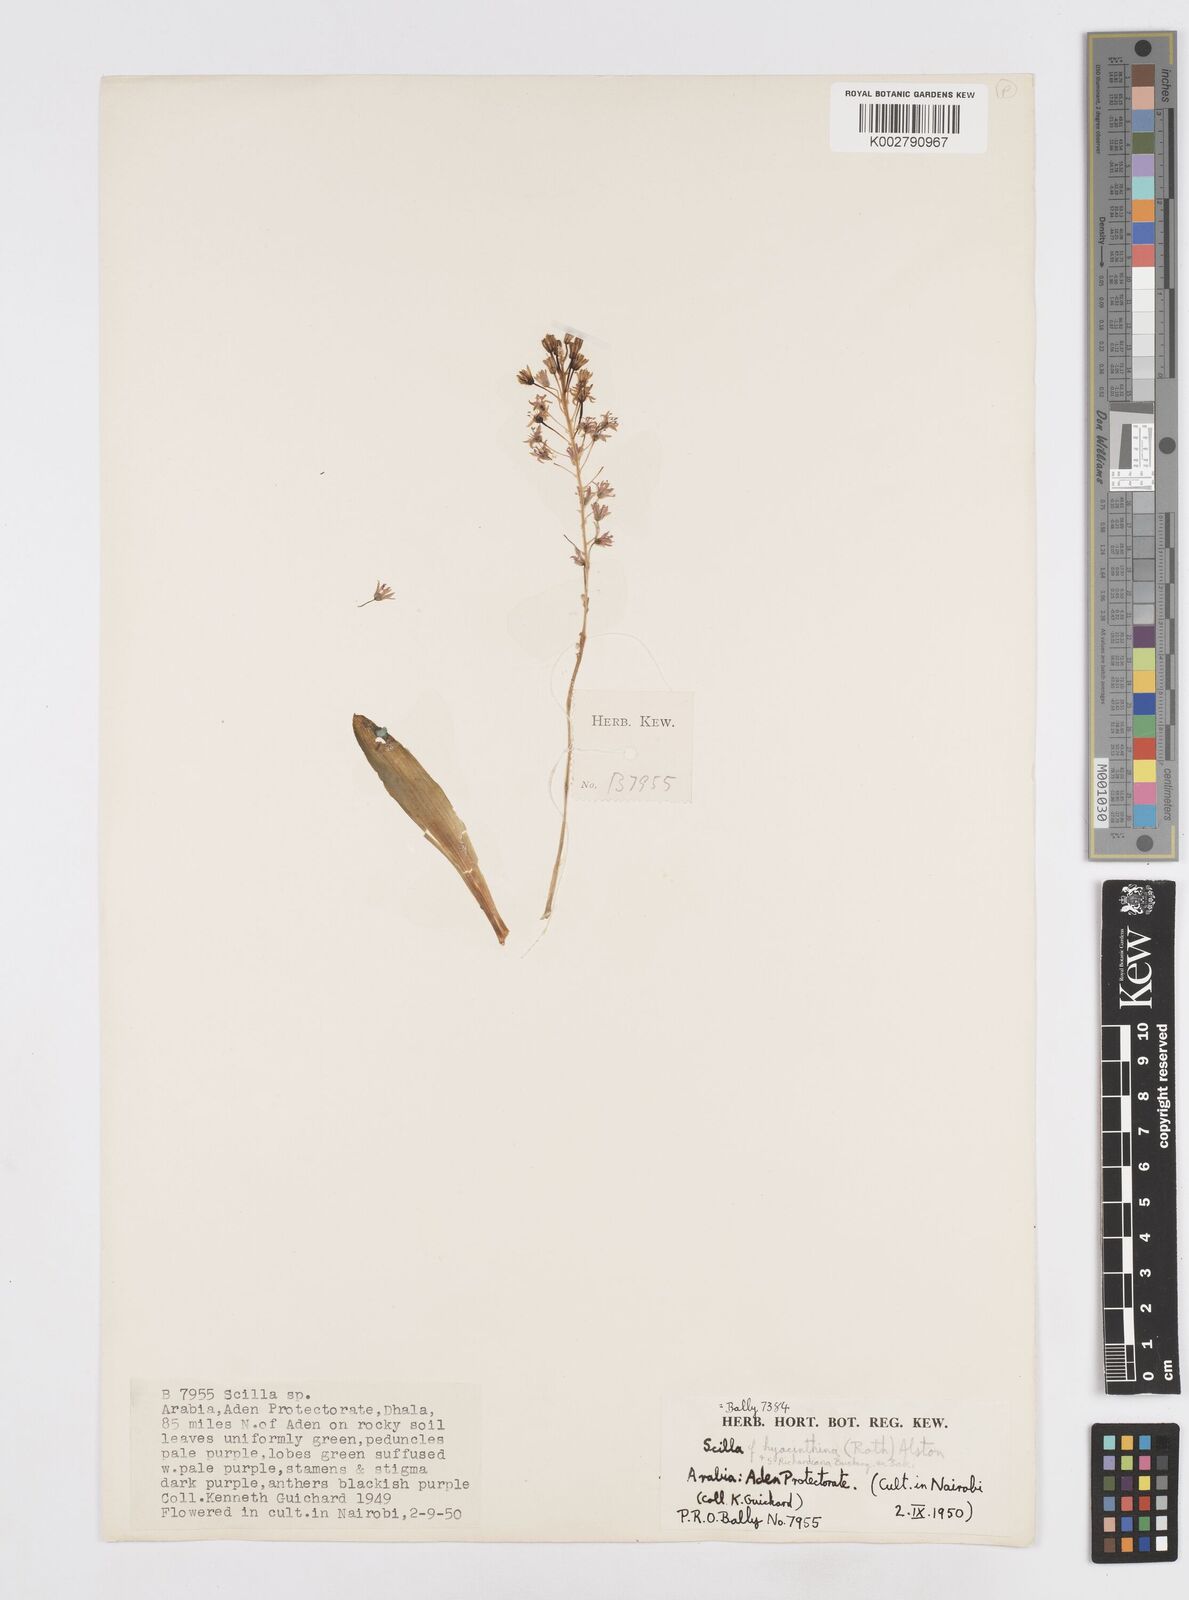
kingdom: Plantae
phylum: Tracheophyta
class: Liliopsida
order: Asparagales
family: Asparagaceae
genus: Ledebouria
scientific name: Ledebouria revoluta
